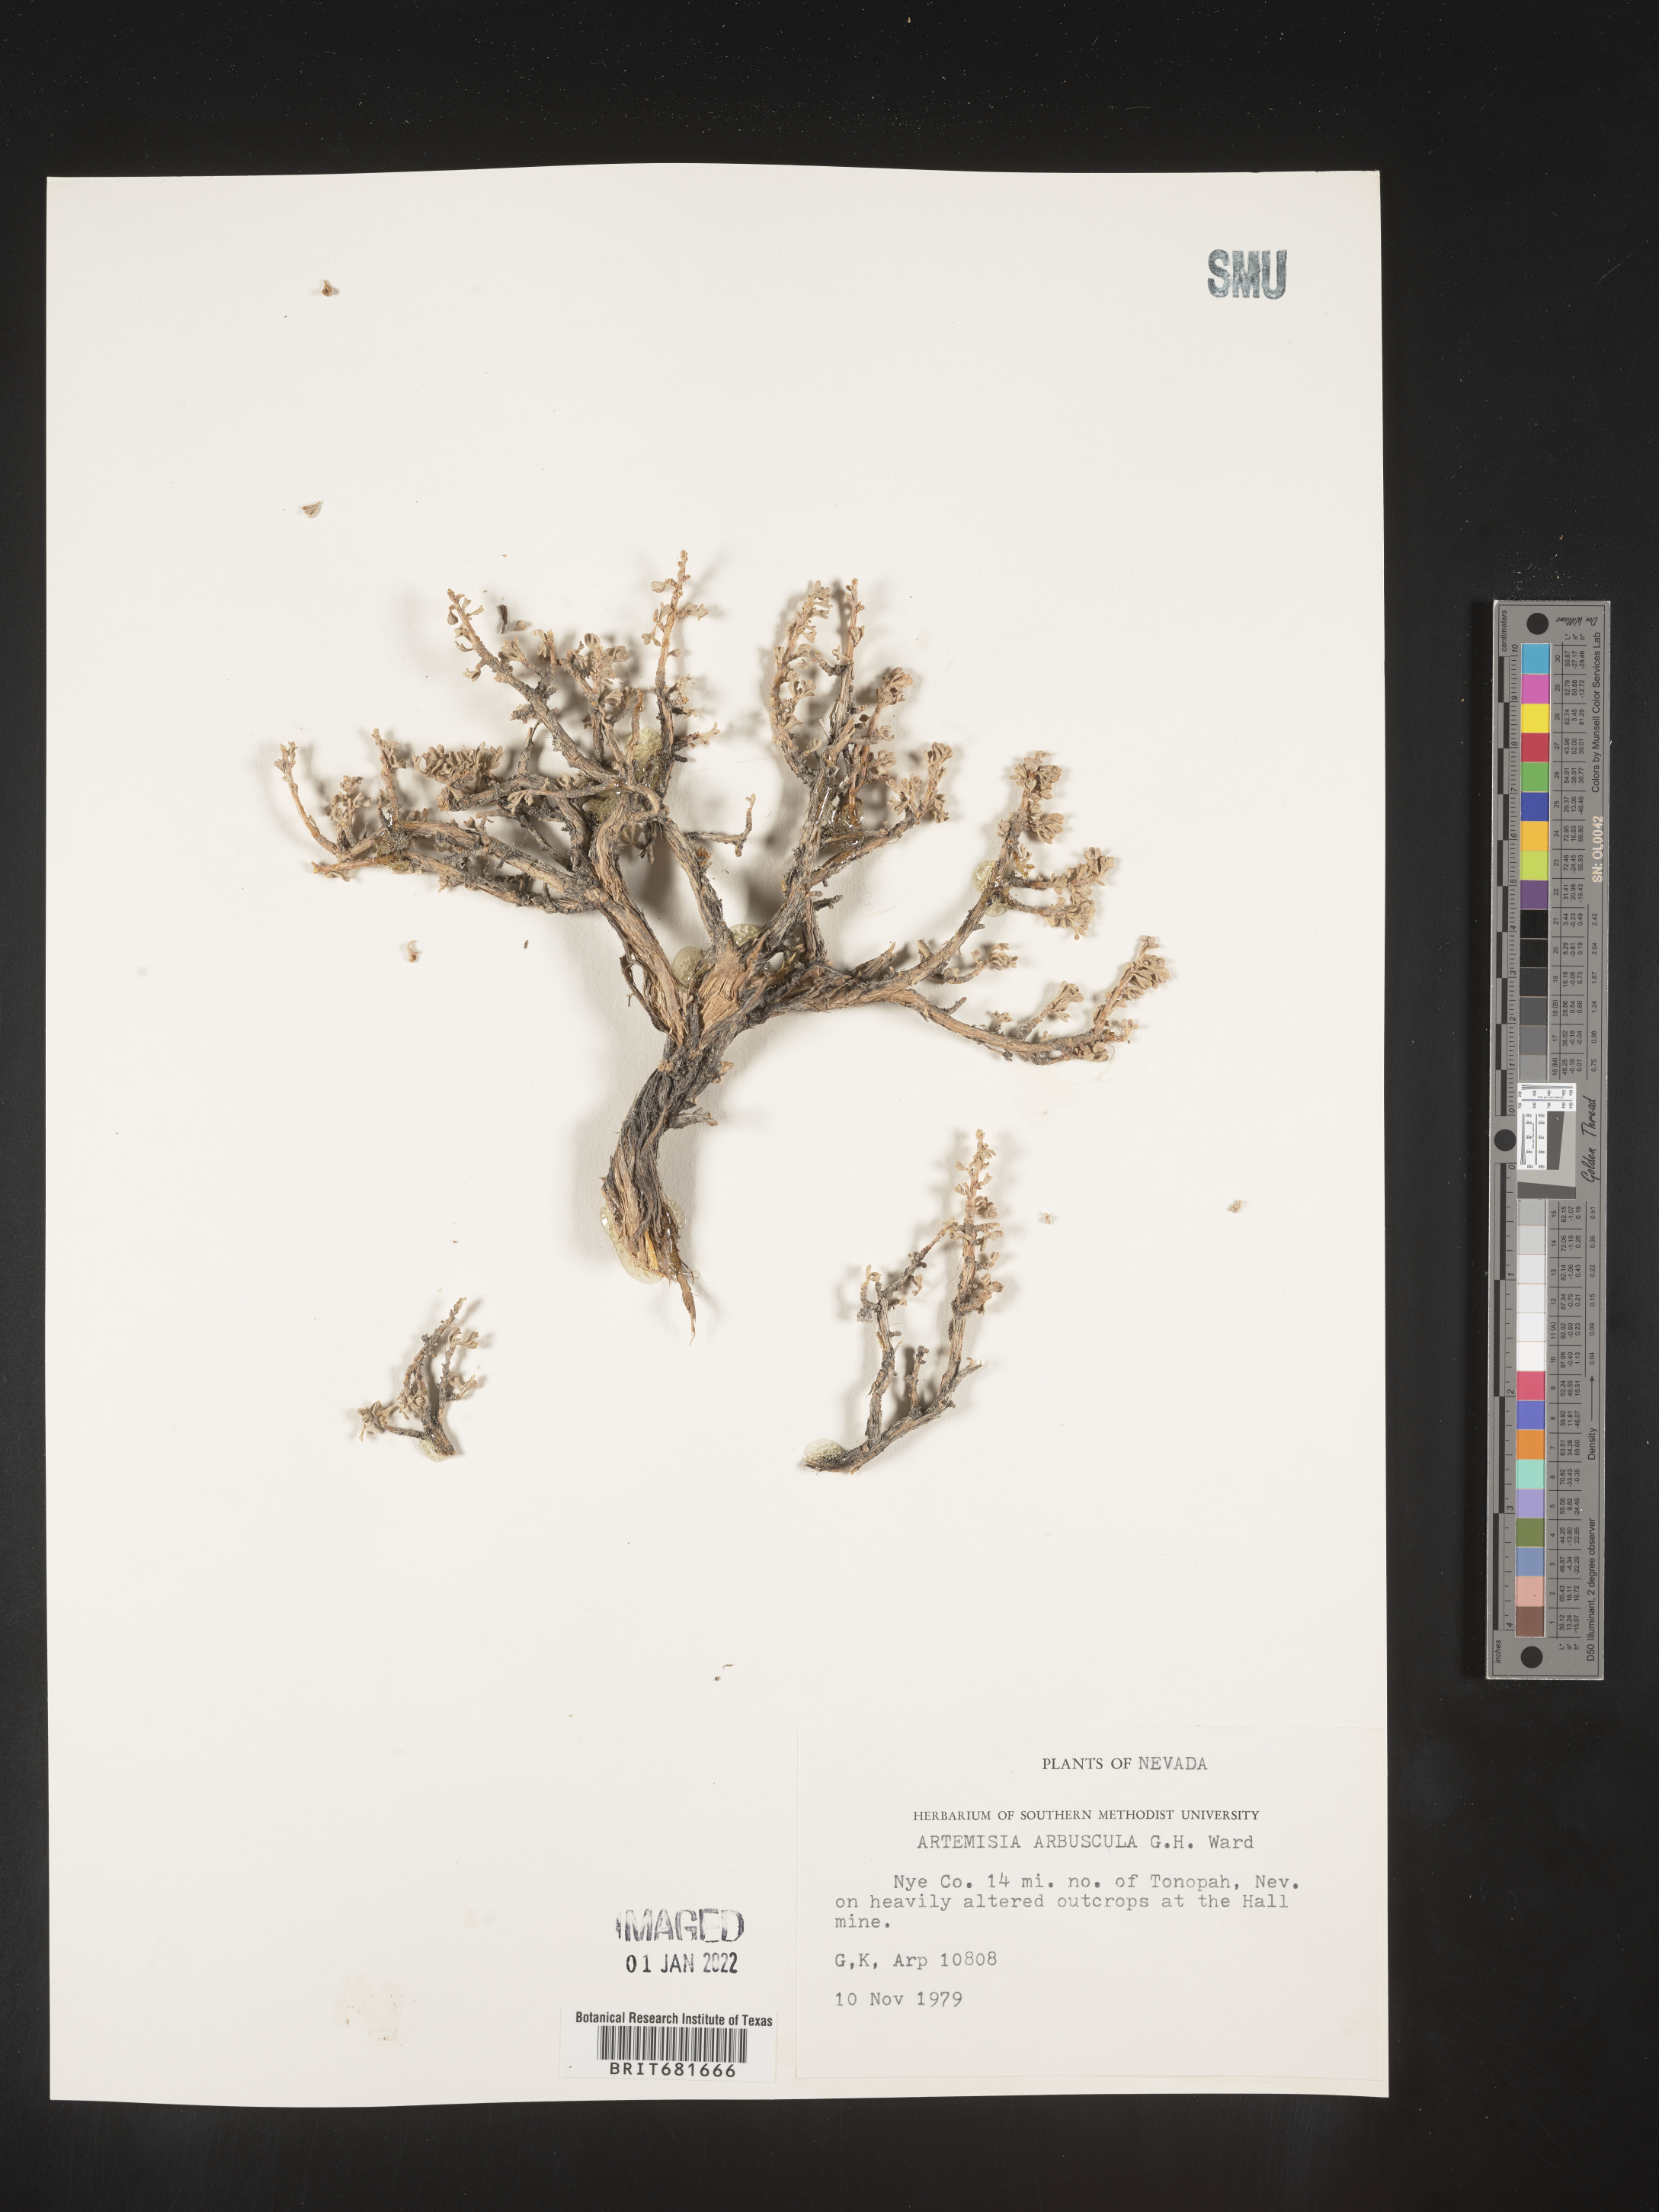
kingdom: Plantae
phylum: Tracheophyta
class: Magnoliopsida
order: Asterales
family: Asteraceae
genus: Artemisia
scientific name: Artemisia arbuscula
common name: Sagebrush
